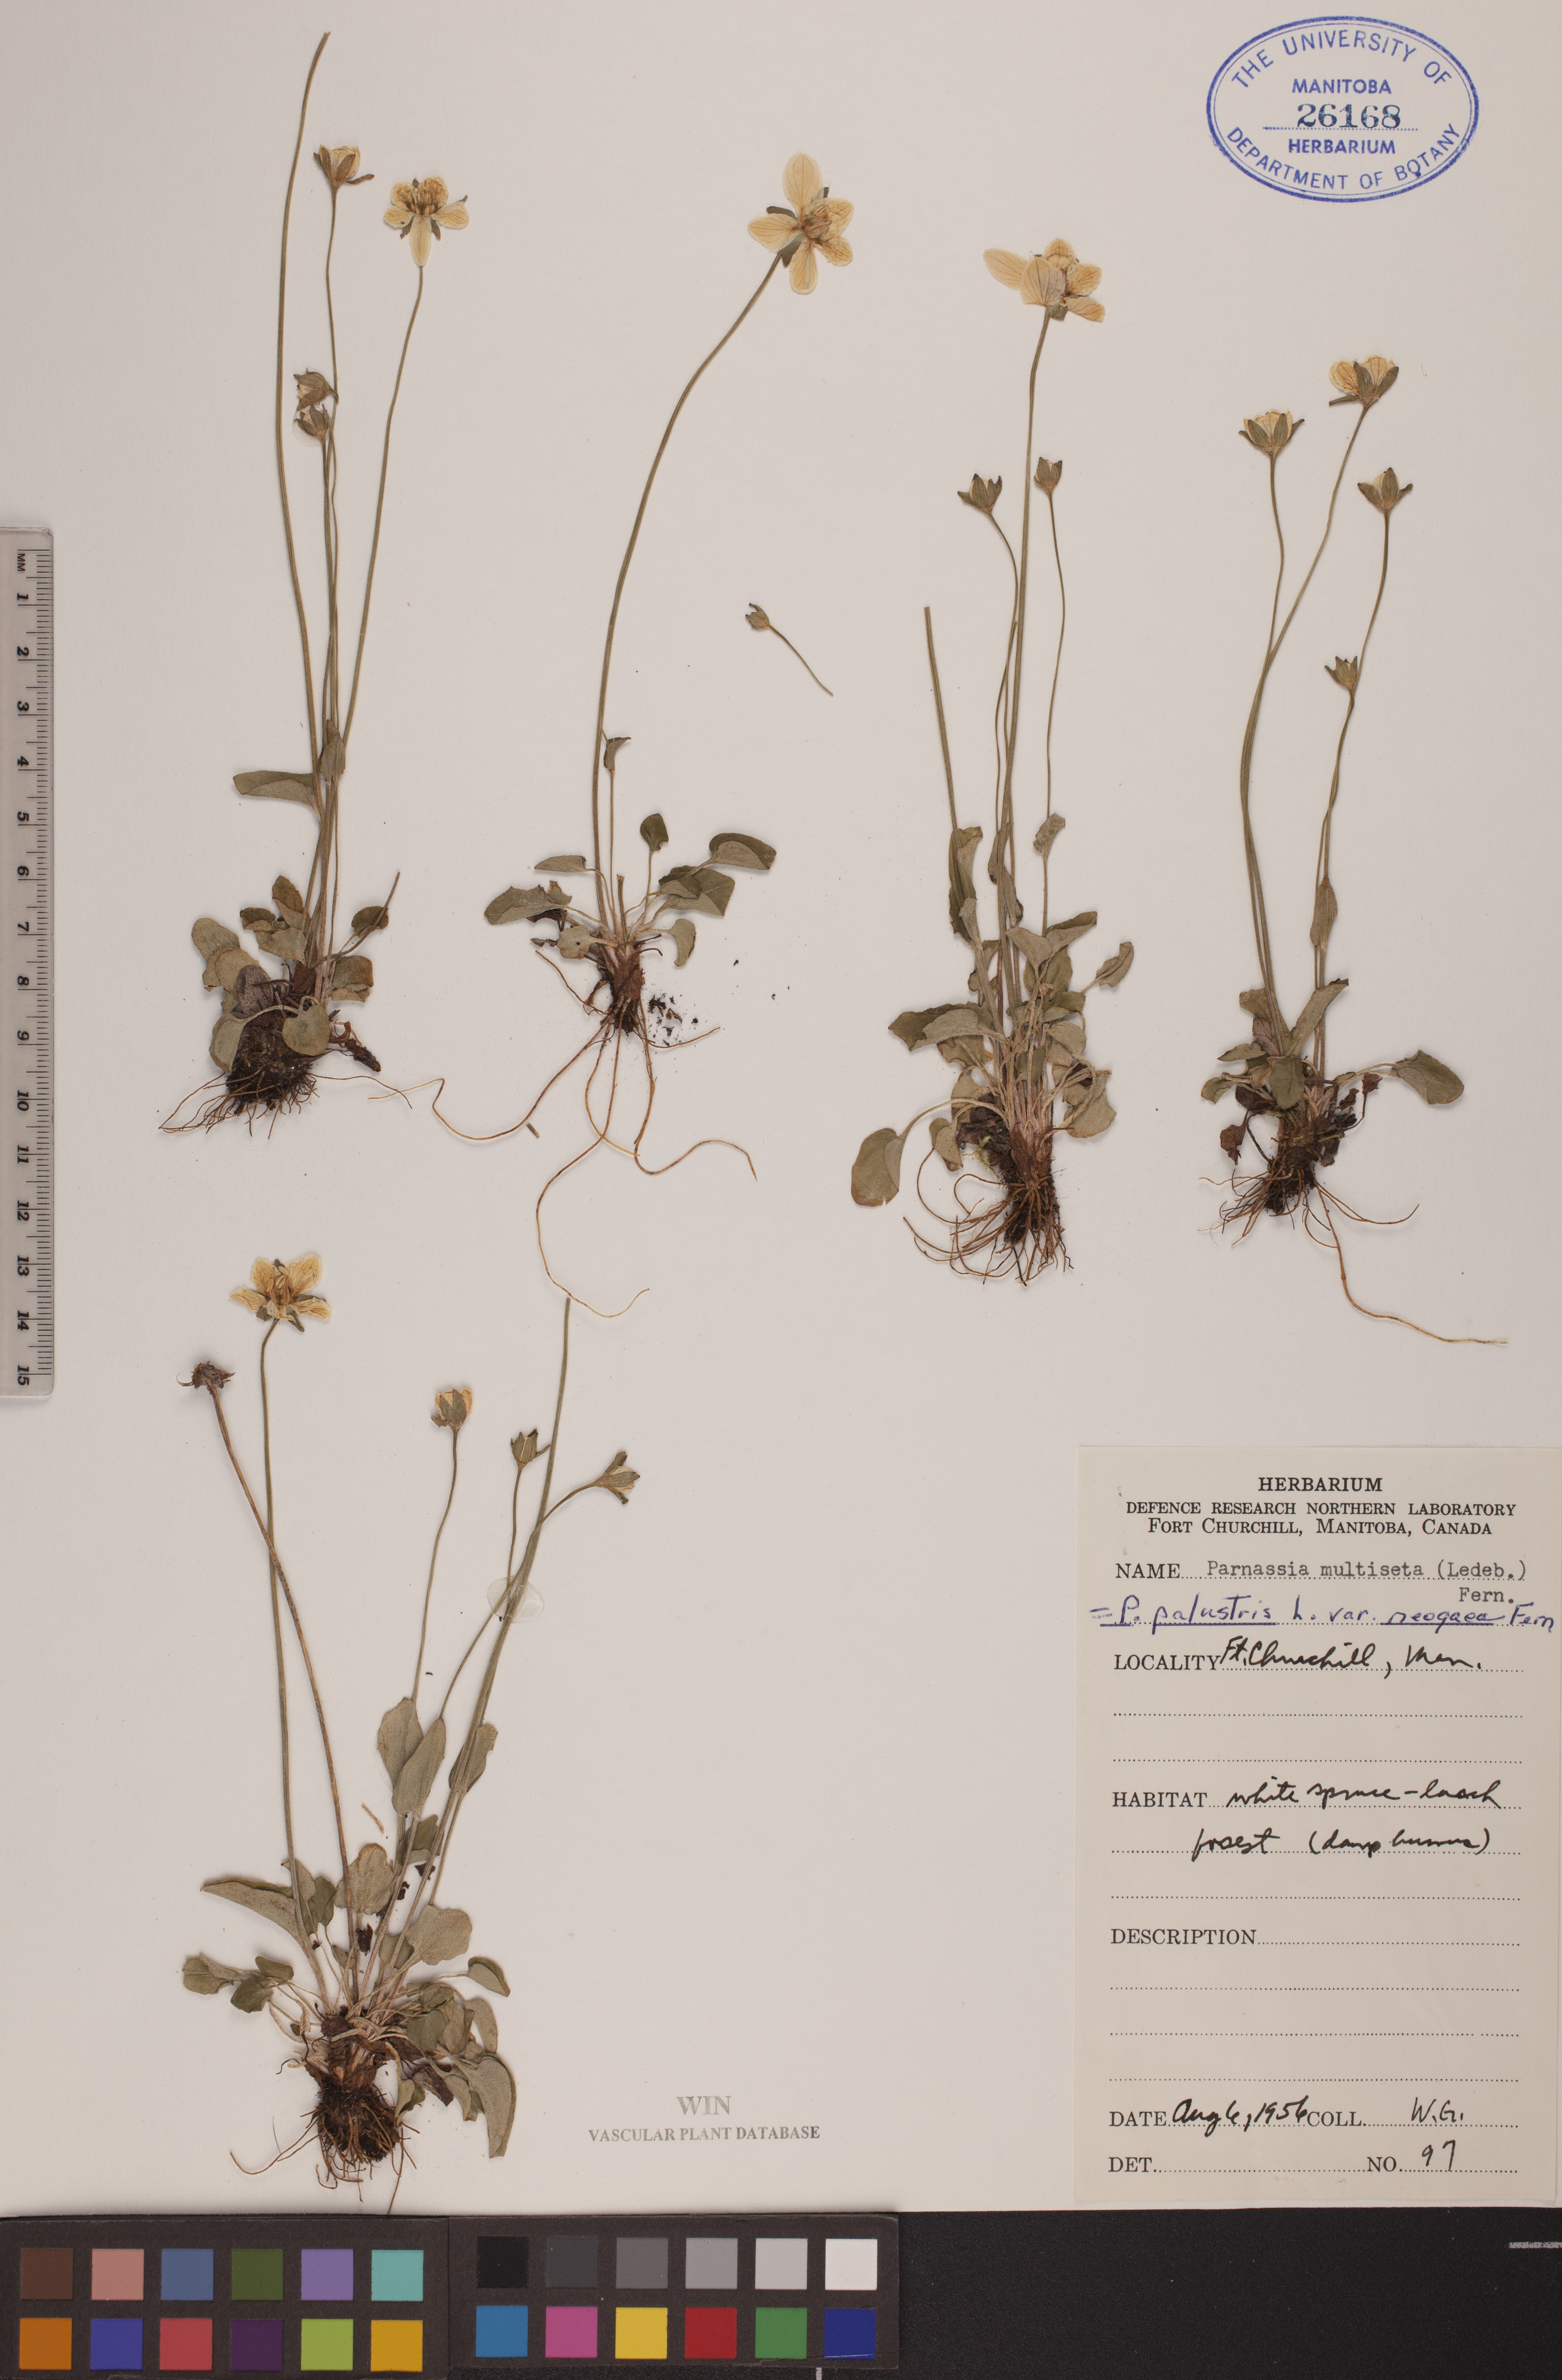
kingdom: Plantae
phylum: Tracheophyta
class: Magnoliopsida
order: Celastrales
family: Parnassiaceae
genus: Parnassia
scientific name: Parnassia palustris
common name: Grass-of-parnassus
